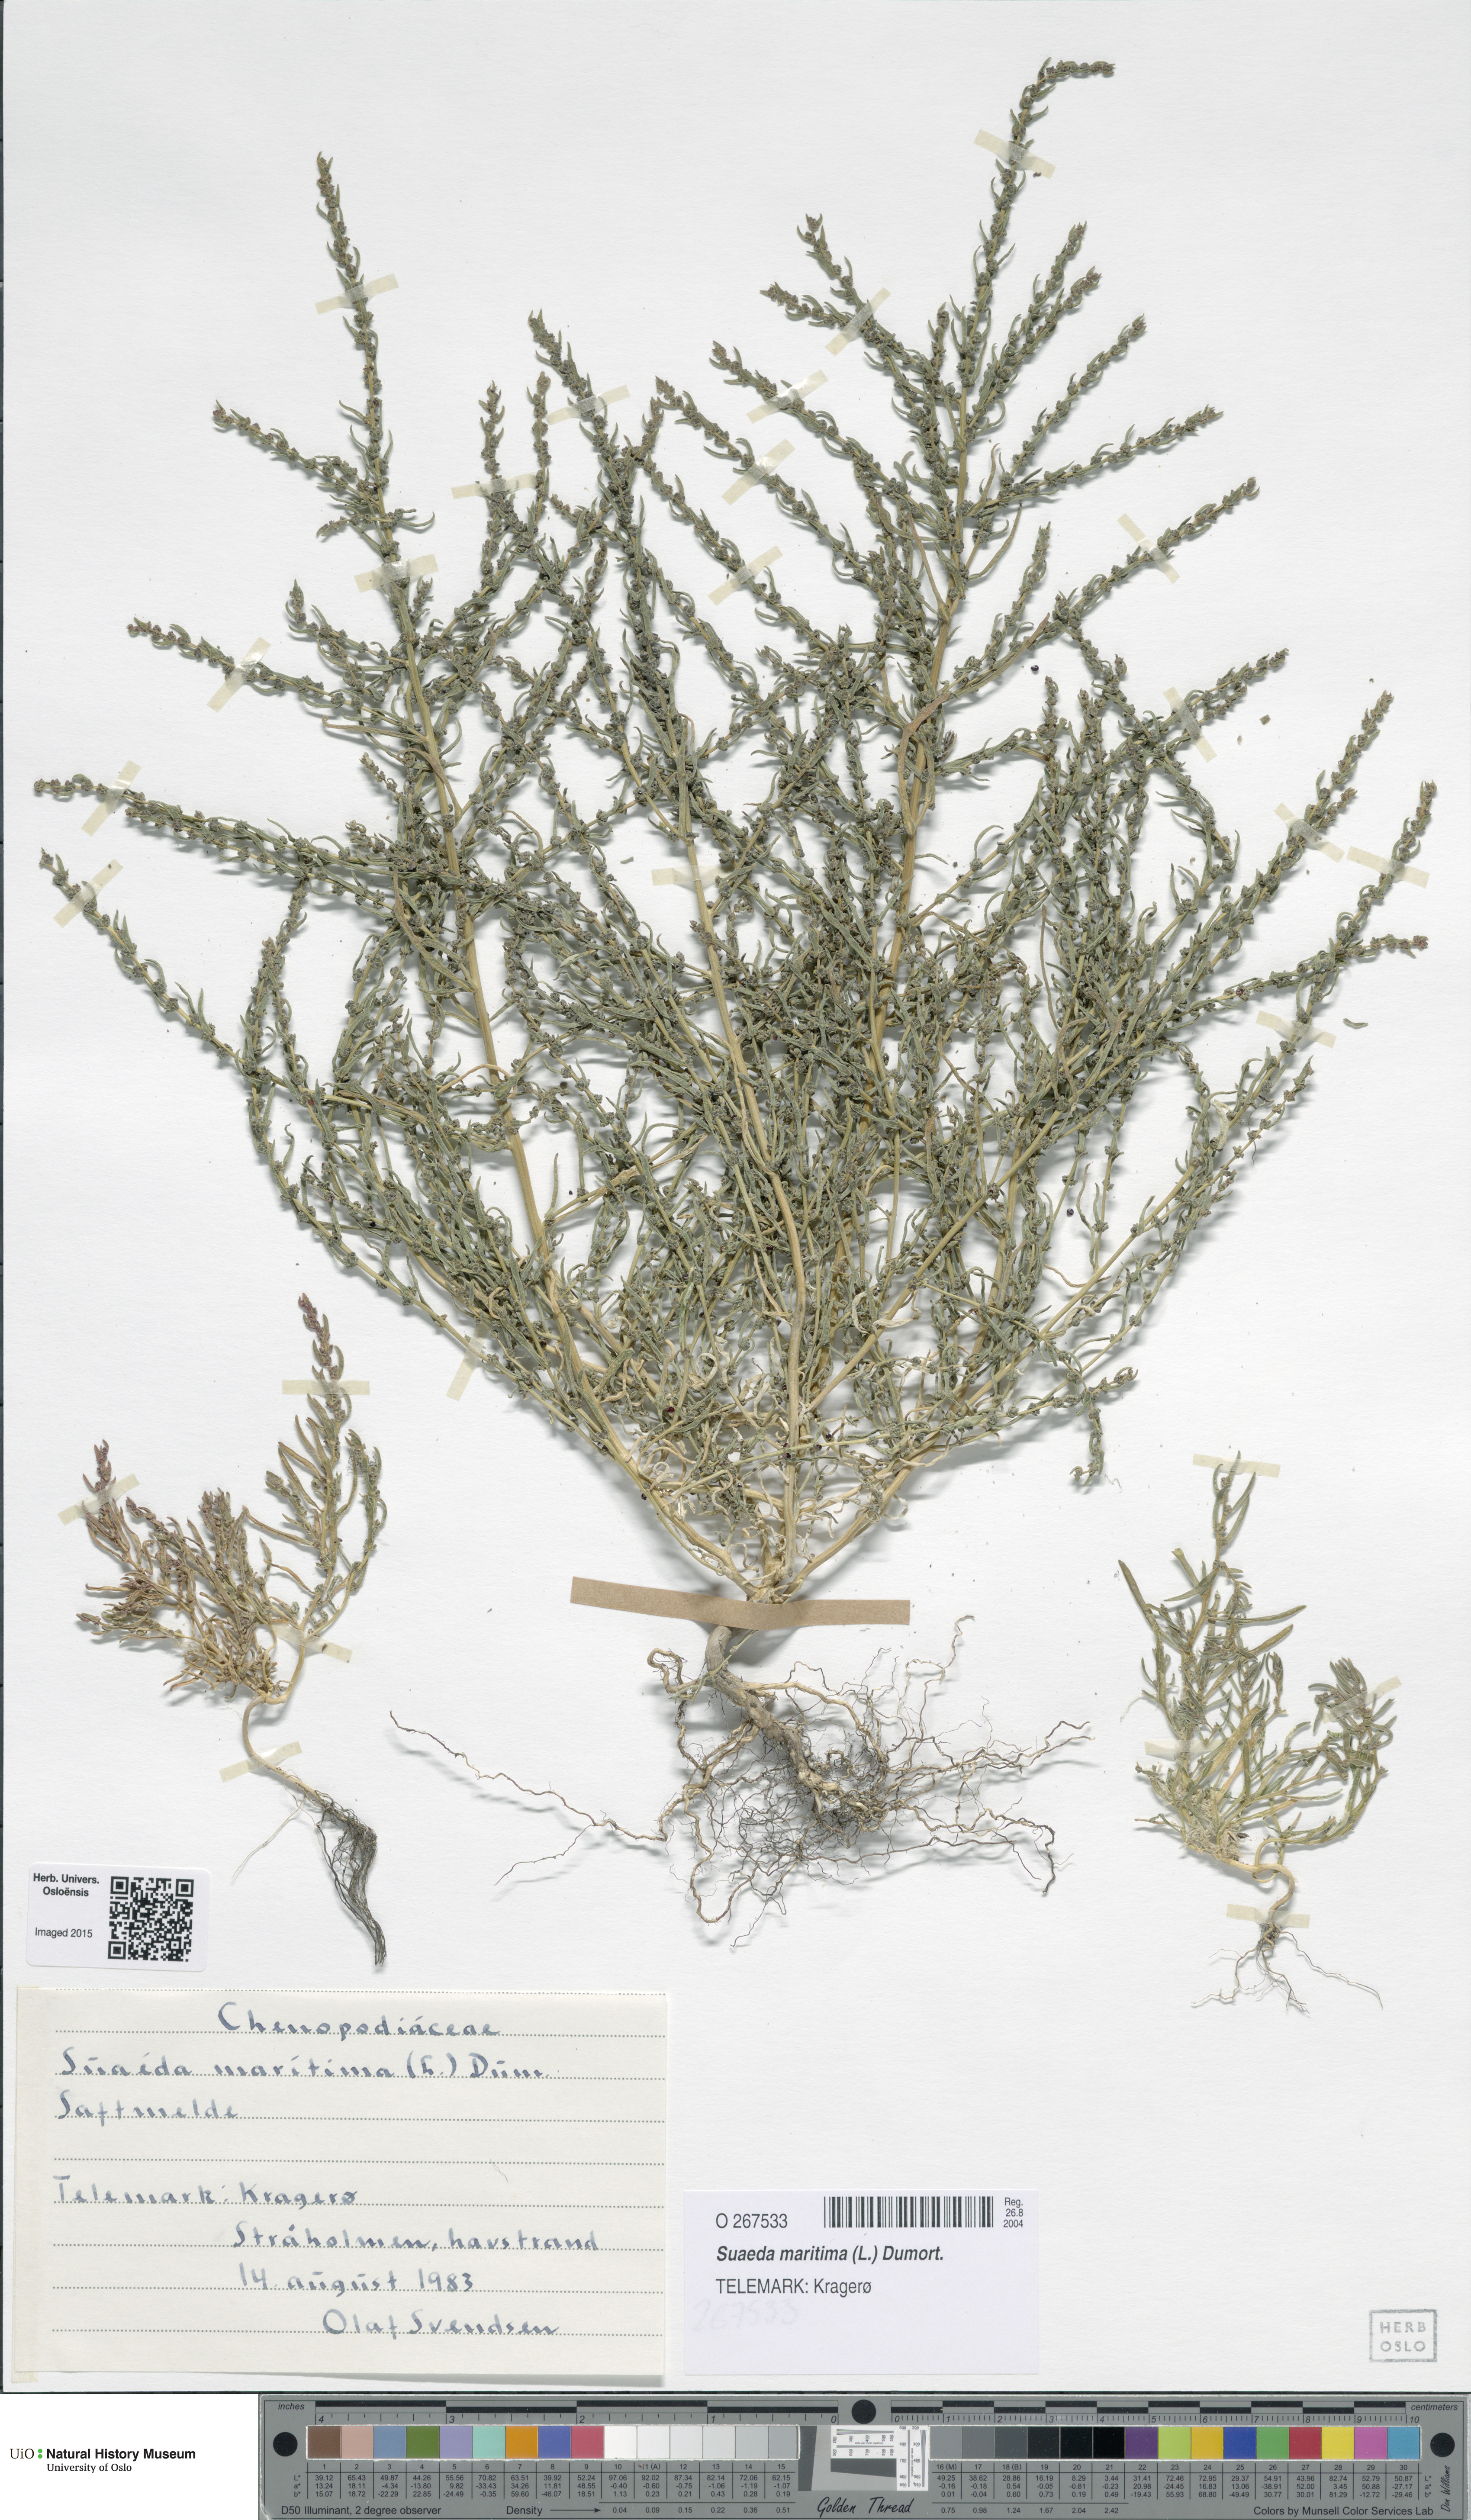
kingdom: Plantae
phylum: Tracheophyta
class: Magnoliopsida
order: Caryophyllales
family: Amaranthaceae
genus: Suaeda
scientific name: Suaeda maritima
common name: Annual sea-blite
